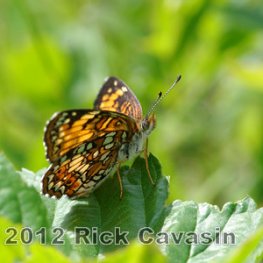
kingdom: Animalia
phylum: Arthropoda
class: Insecta
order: Lepidoptera
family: Nymphalidae
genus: Chlosyne
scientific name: Chlosyne harrisii
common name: Harris's Checkerspot
